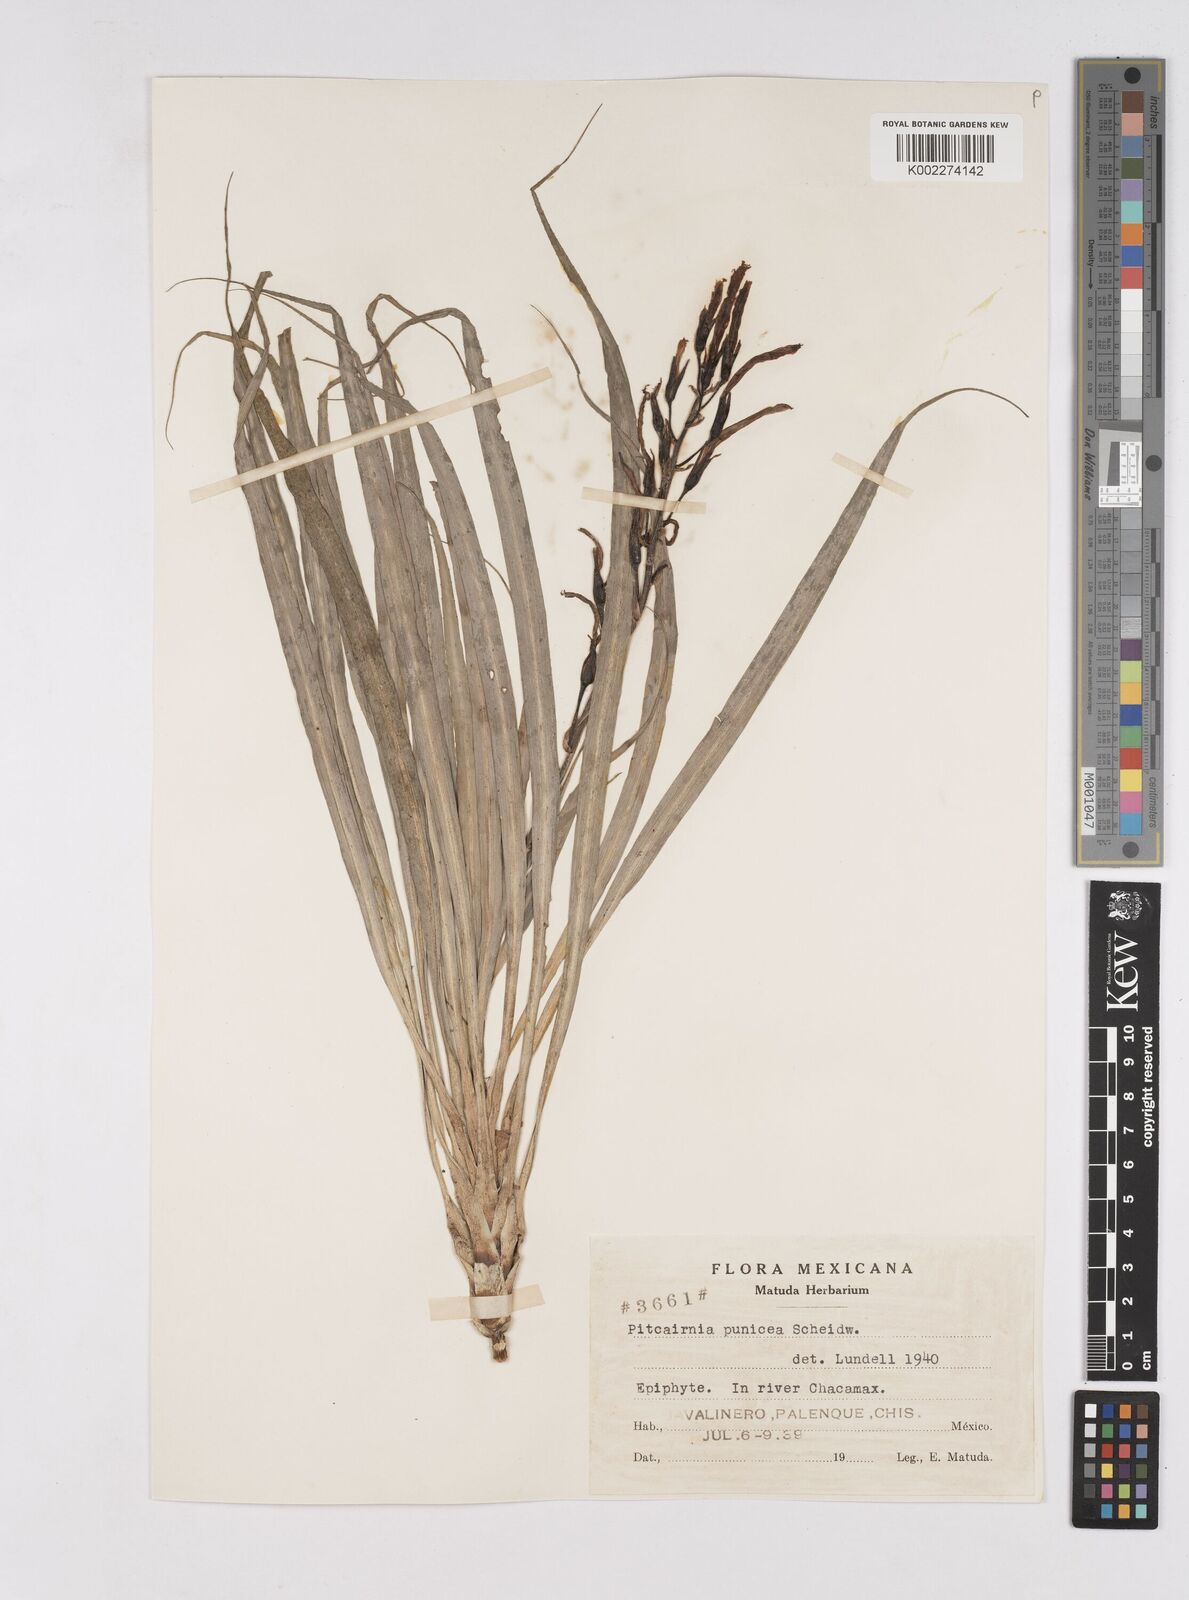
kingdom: Plantae
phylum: Tracheophyta
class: Liliopsida
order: Poales
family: Bromeliaceae
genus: Pitcairnia
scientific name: Pitcairnia punicea
